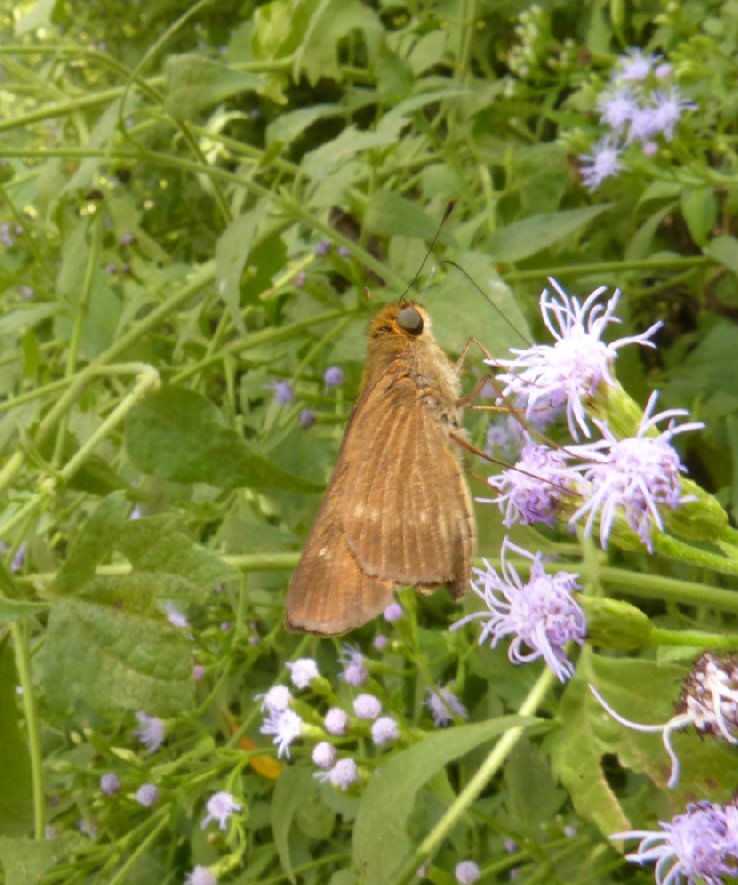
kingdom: Animalia
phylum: Arthropoda
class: Insecta
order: Lepidoptera
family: Hesperiidae
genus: Panoquina
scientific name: Panoquina ocola
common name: Ocola Skipper
